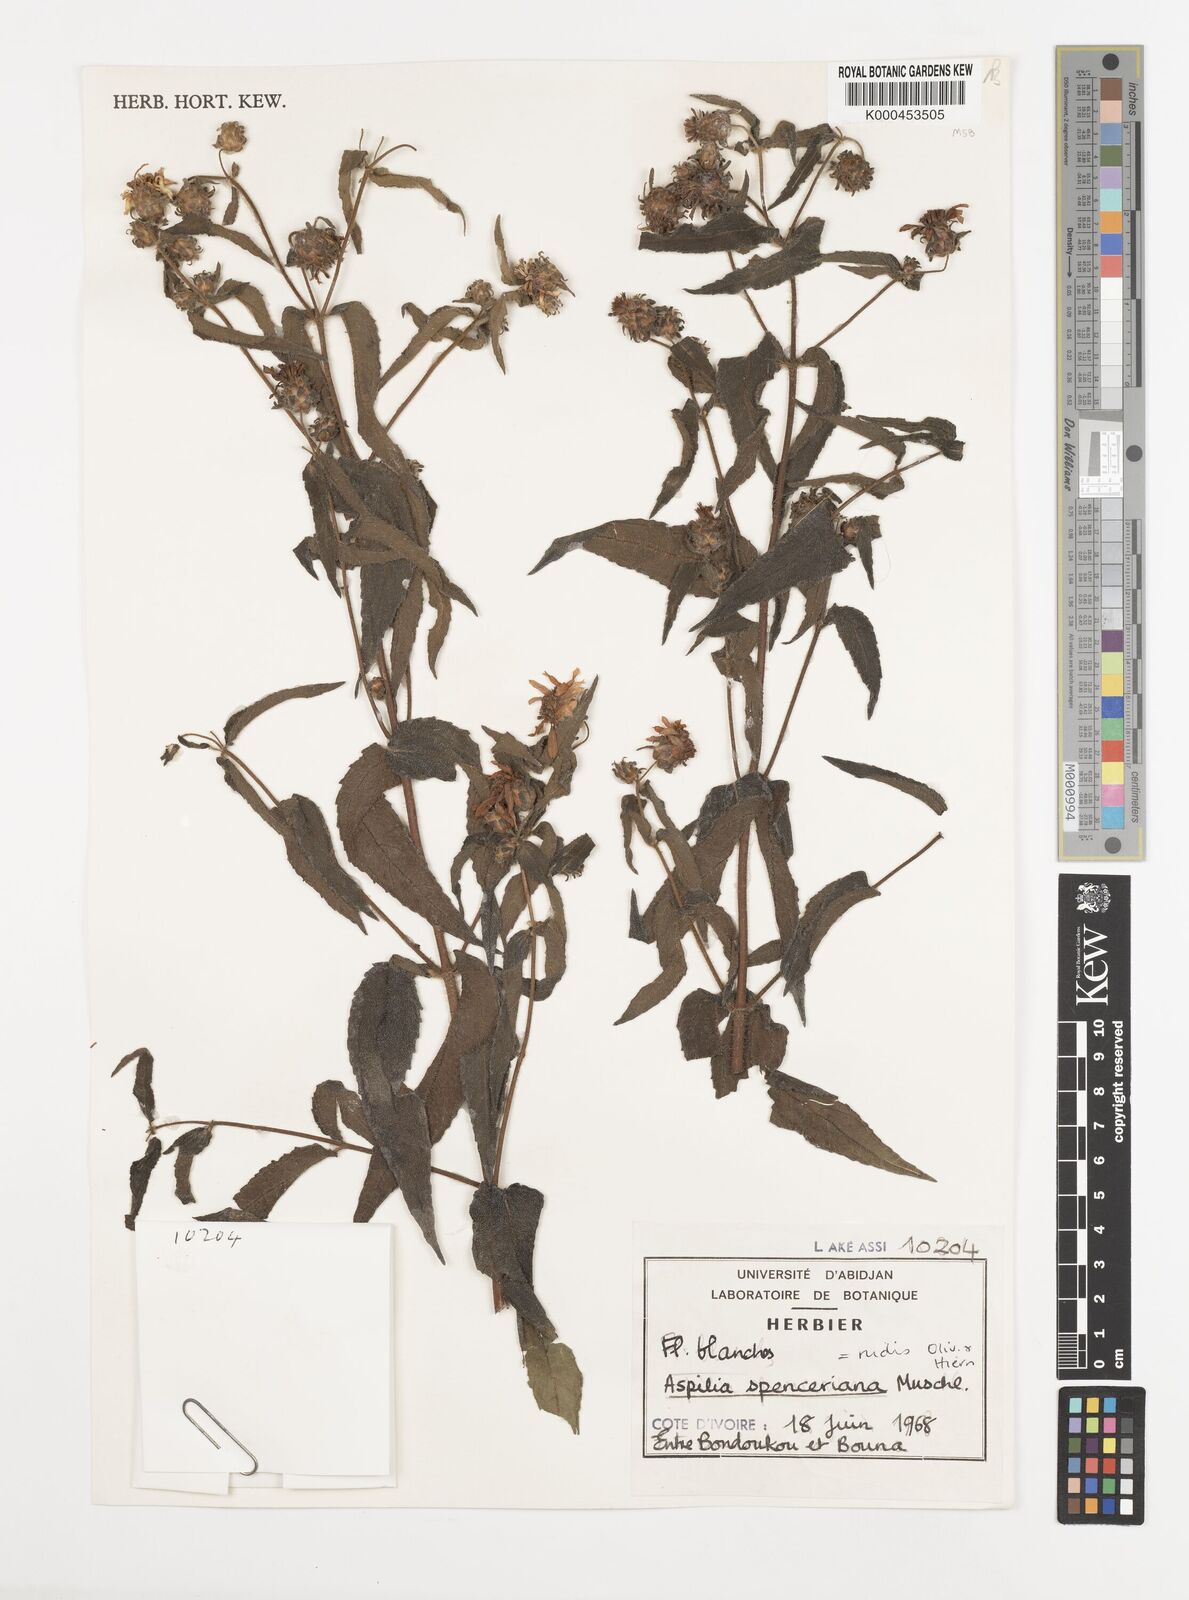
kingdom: Plantae
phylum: Tracheophyta
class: Magnoliopsida
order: Asterales
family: Asteraceae
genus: Aspilia
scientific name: Aspilia rudis
